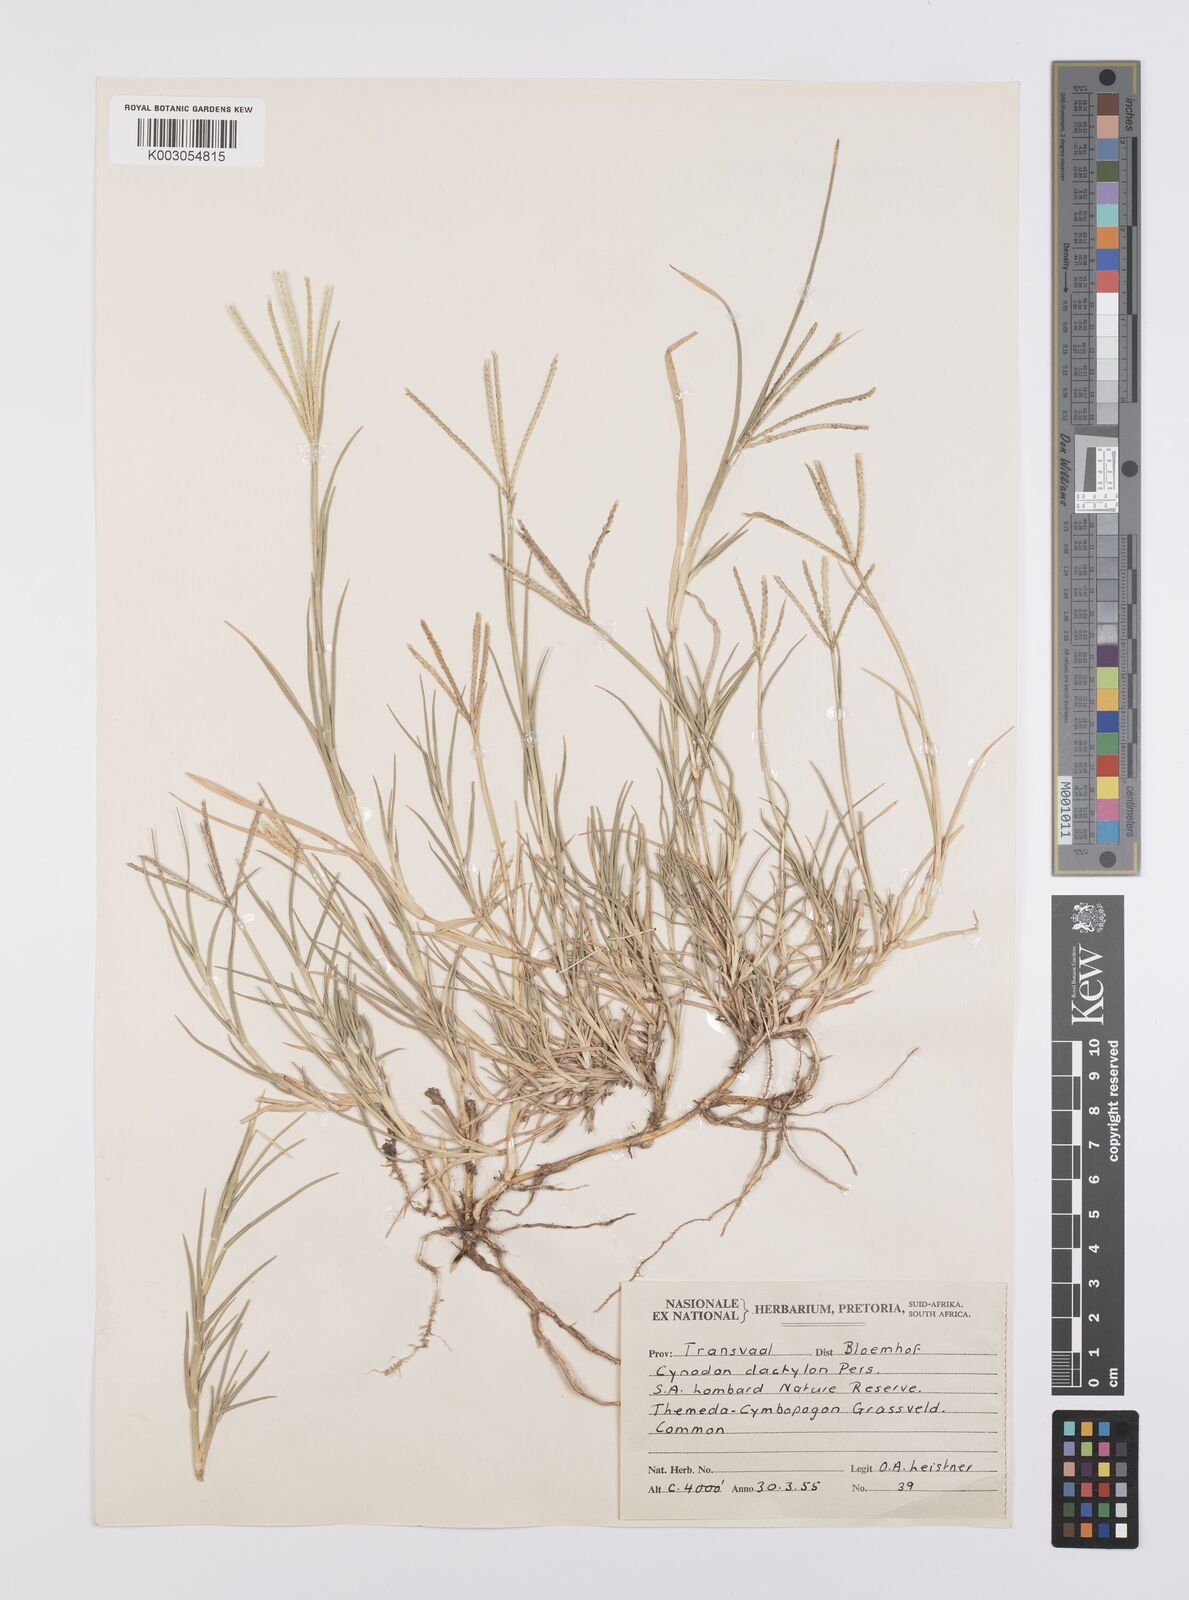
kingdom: Plantae
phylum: Tracheophyta
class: Liliopsida
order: Poales
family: Poaceae
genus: Cynodon
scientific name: Cynodon dactylon
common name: Bermuda grass
